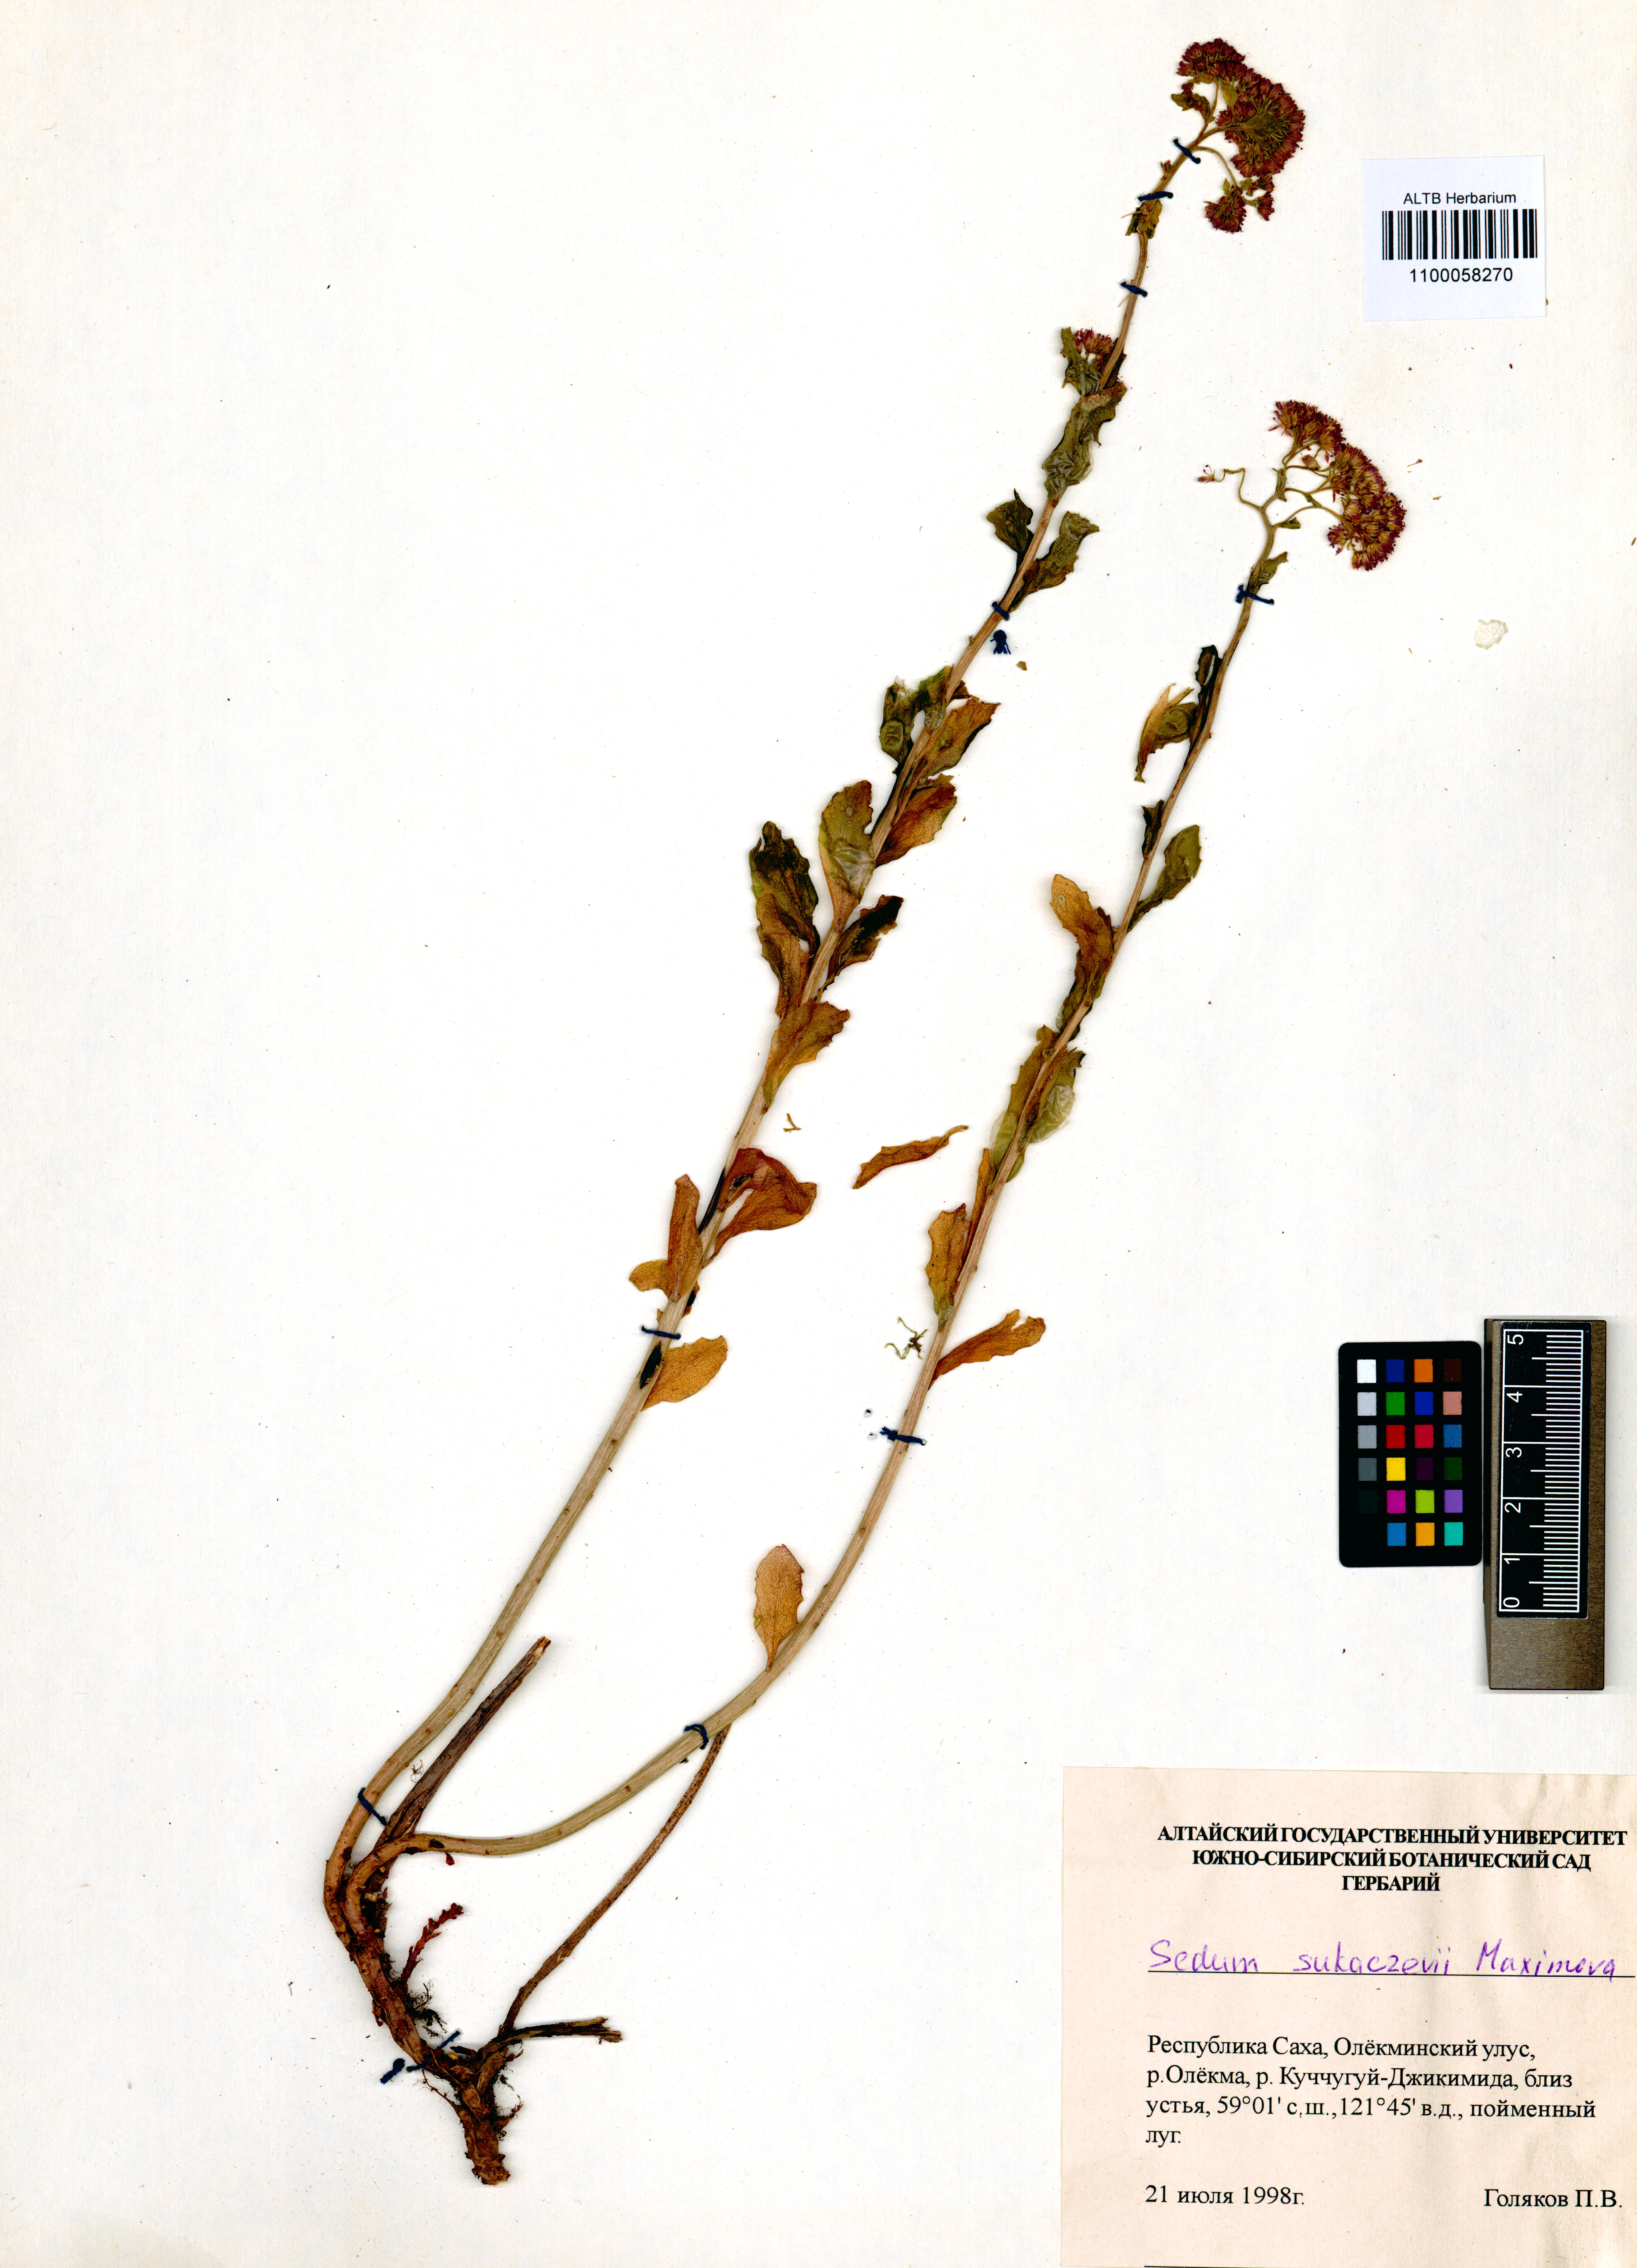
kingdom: Plantae
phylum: Tracheophyta
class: Magnoliopsida
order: Saxifragales
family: Crassulaceae
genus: Hylotelephium
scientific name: Hylotelephium pallescens
